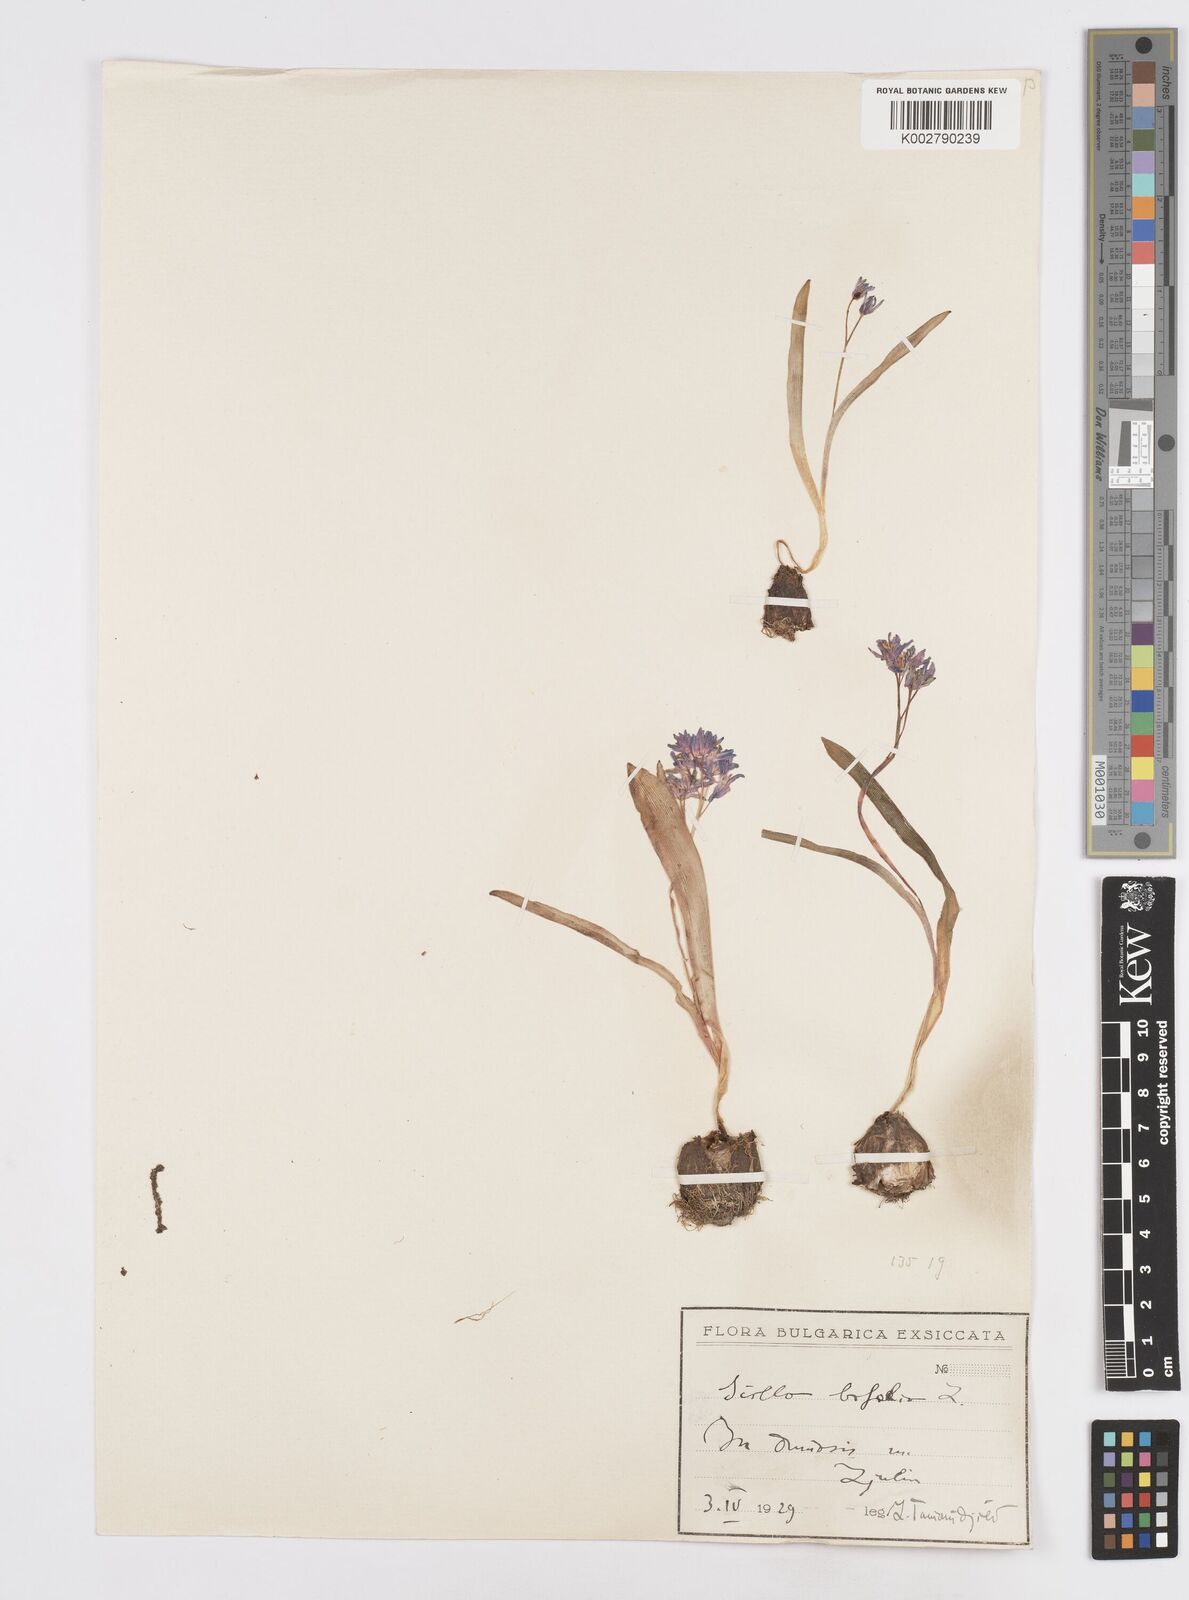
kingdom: Plantae
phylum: Tracheophyta
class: Liliopsida
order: Asparagales
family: Asparagaceae
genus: Scilla
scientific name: Scilla bifolia
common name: Alpine squill
